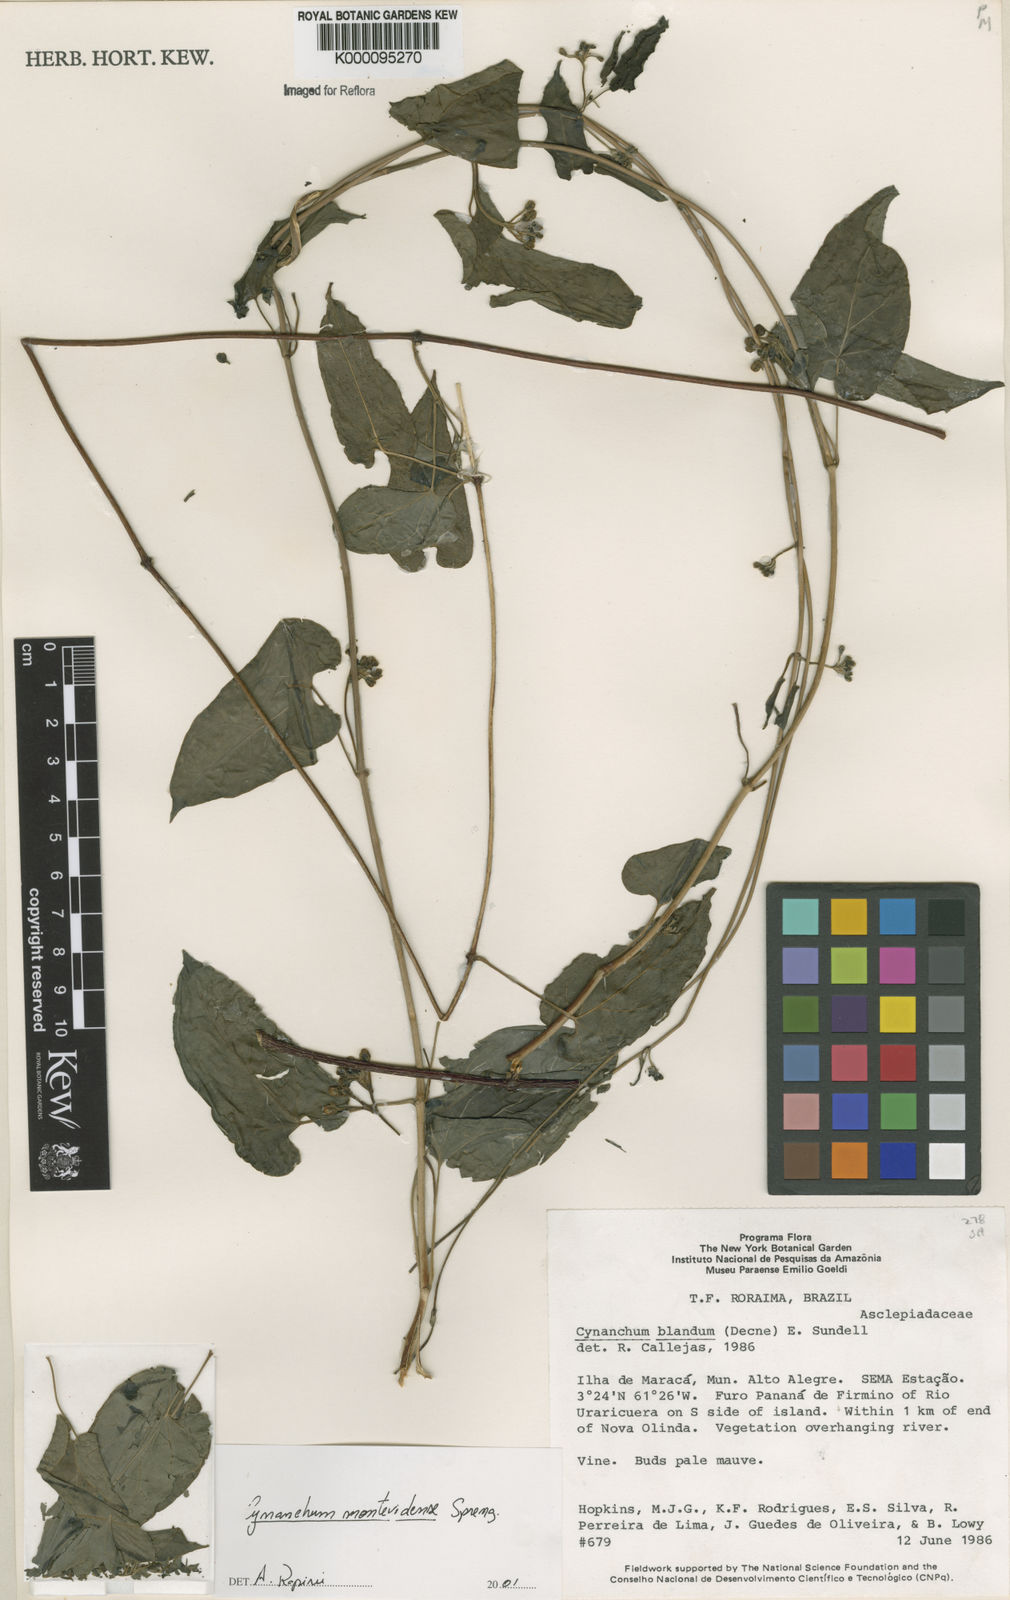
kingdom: Plantae
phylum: Tracheophyta
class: Magnoliopsida
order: Gentianales
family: Apocynaceae
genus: Cynanchum
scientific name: Cynanchum montevidense
